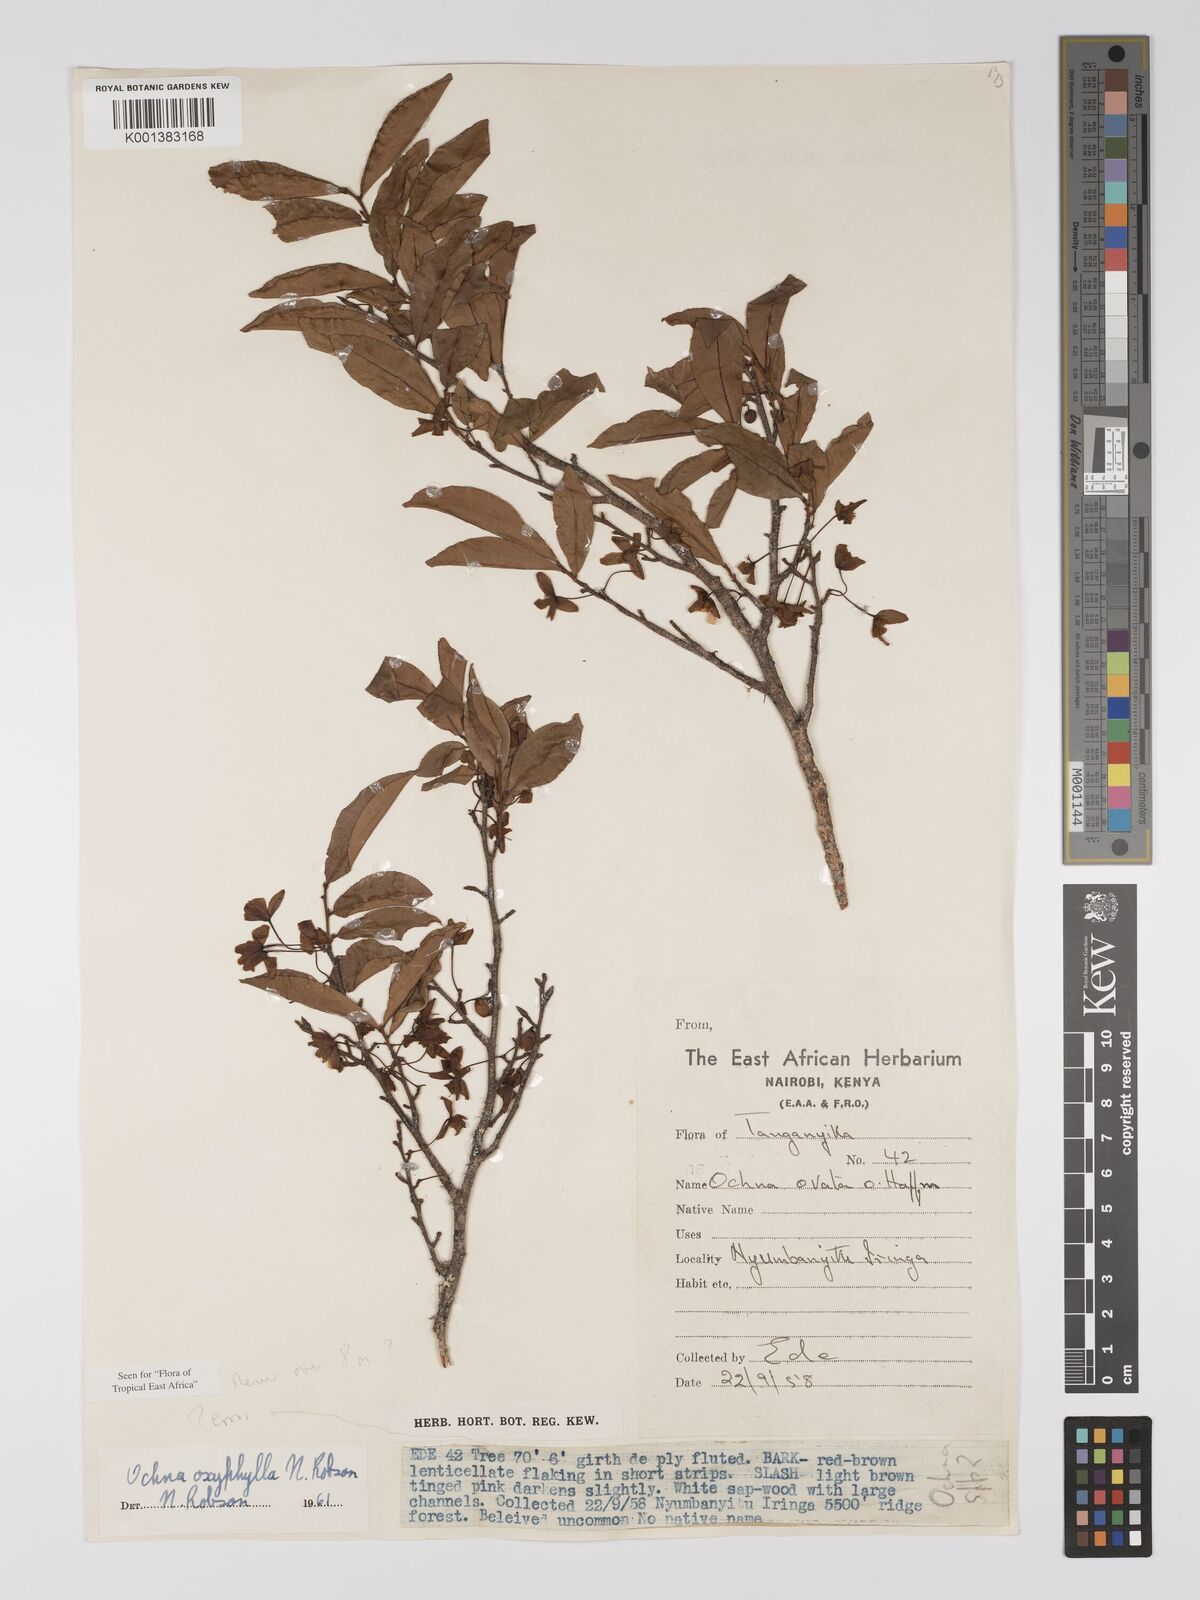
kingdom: Plantae
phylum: Tracheophyta
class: Magnoliopsida
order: Malpighiales
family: Ochnaceae
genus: Ochna
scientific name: Ochna oxyphylla
